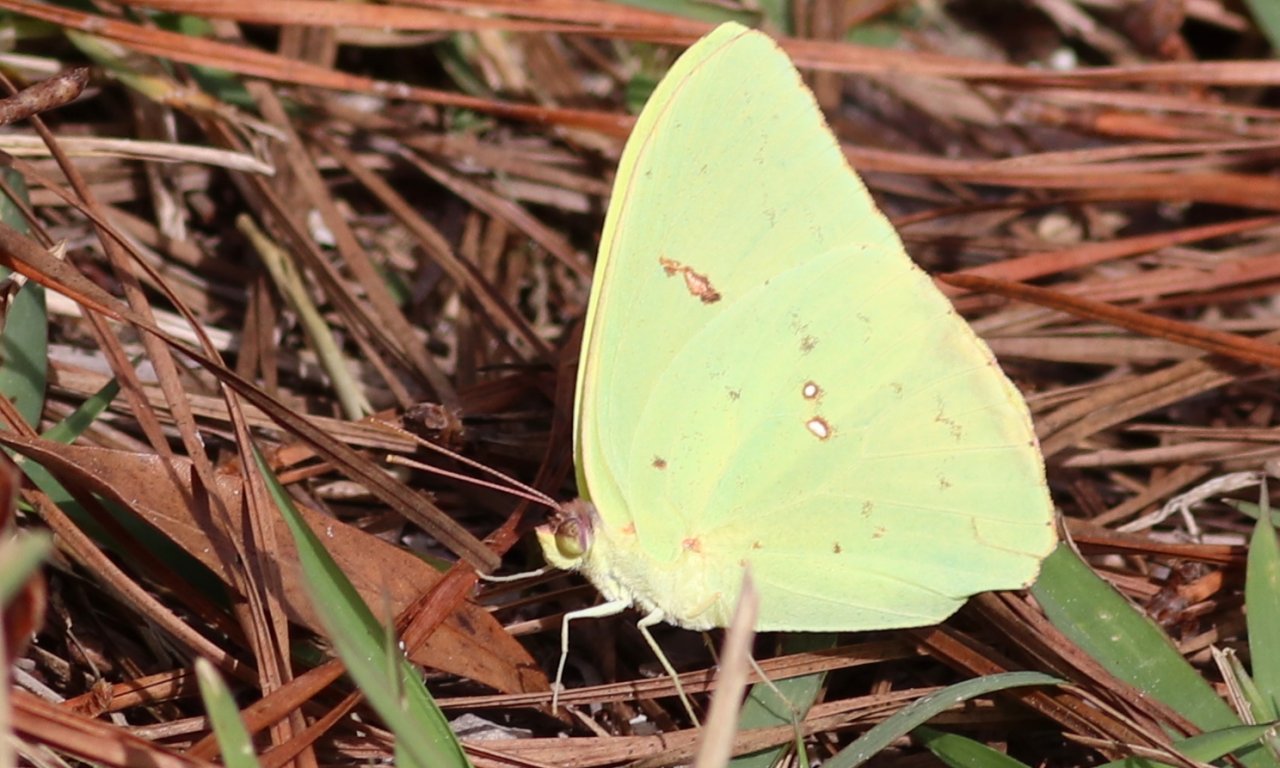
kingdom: Animalia
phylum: Arthropoda
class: Insecta
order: Lepidoptera
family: Pieridae
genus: Phoebis
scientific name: Phoebis sennae
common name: Cloudless Sulphur
